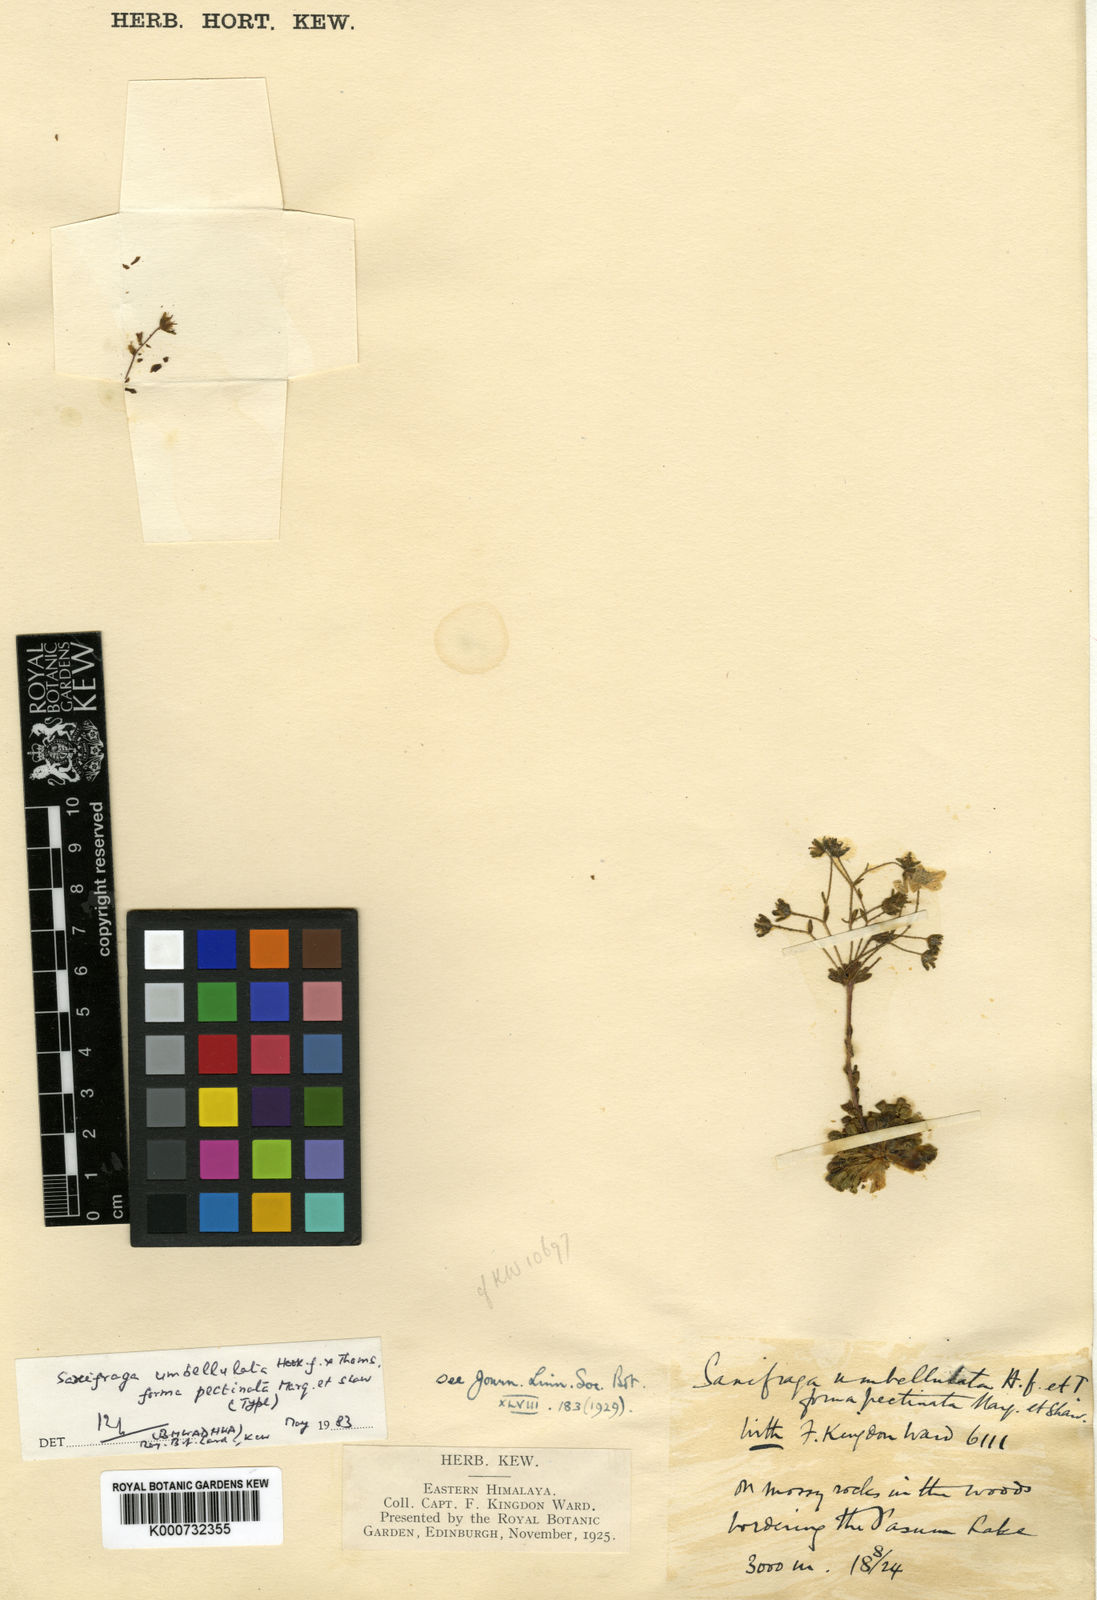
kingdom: Plantae
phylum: Tracheophyta
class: Magnoliopsida
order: Saxifragales
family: Saxifragaceae
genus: Saxifraga
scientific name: Saxifraga umbellulata
